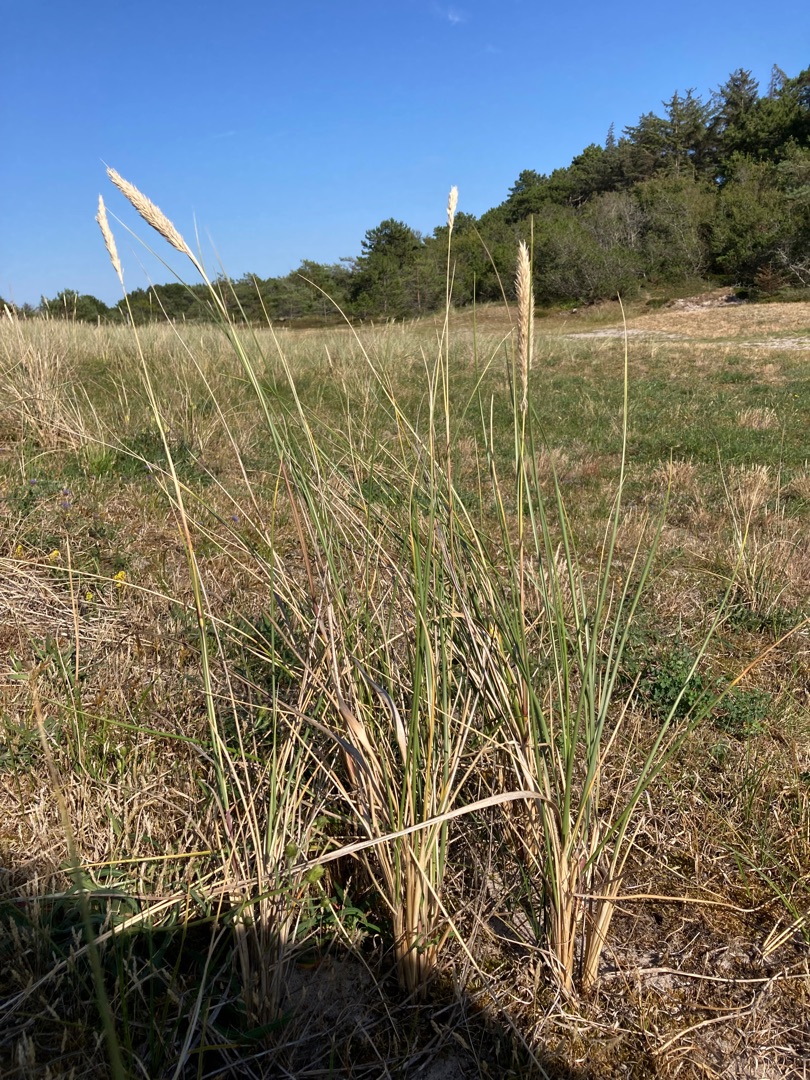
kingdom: Plantae
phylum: Tracheophyta
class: Liliopsida
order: Poales
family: Poaceae
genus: Calamagrostis
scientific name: Calamagrostis arenaria
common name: Sand-hjælme
